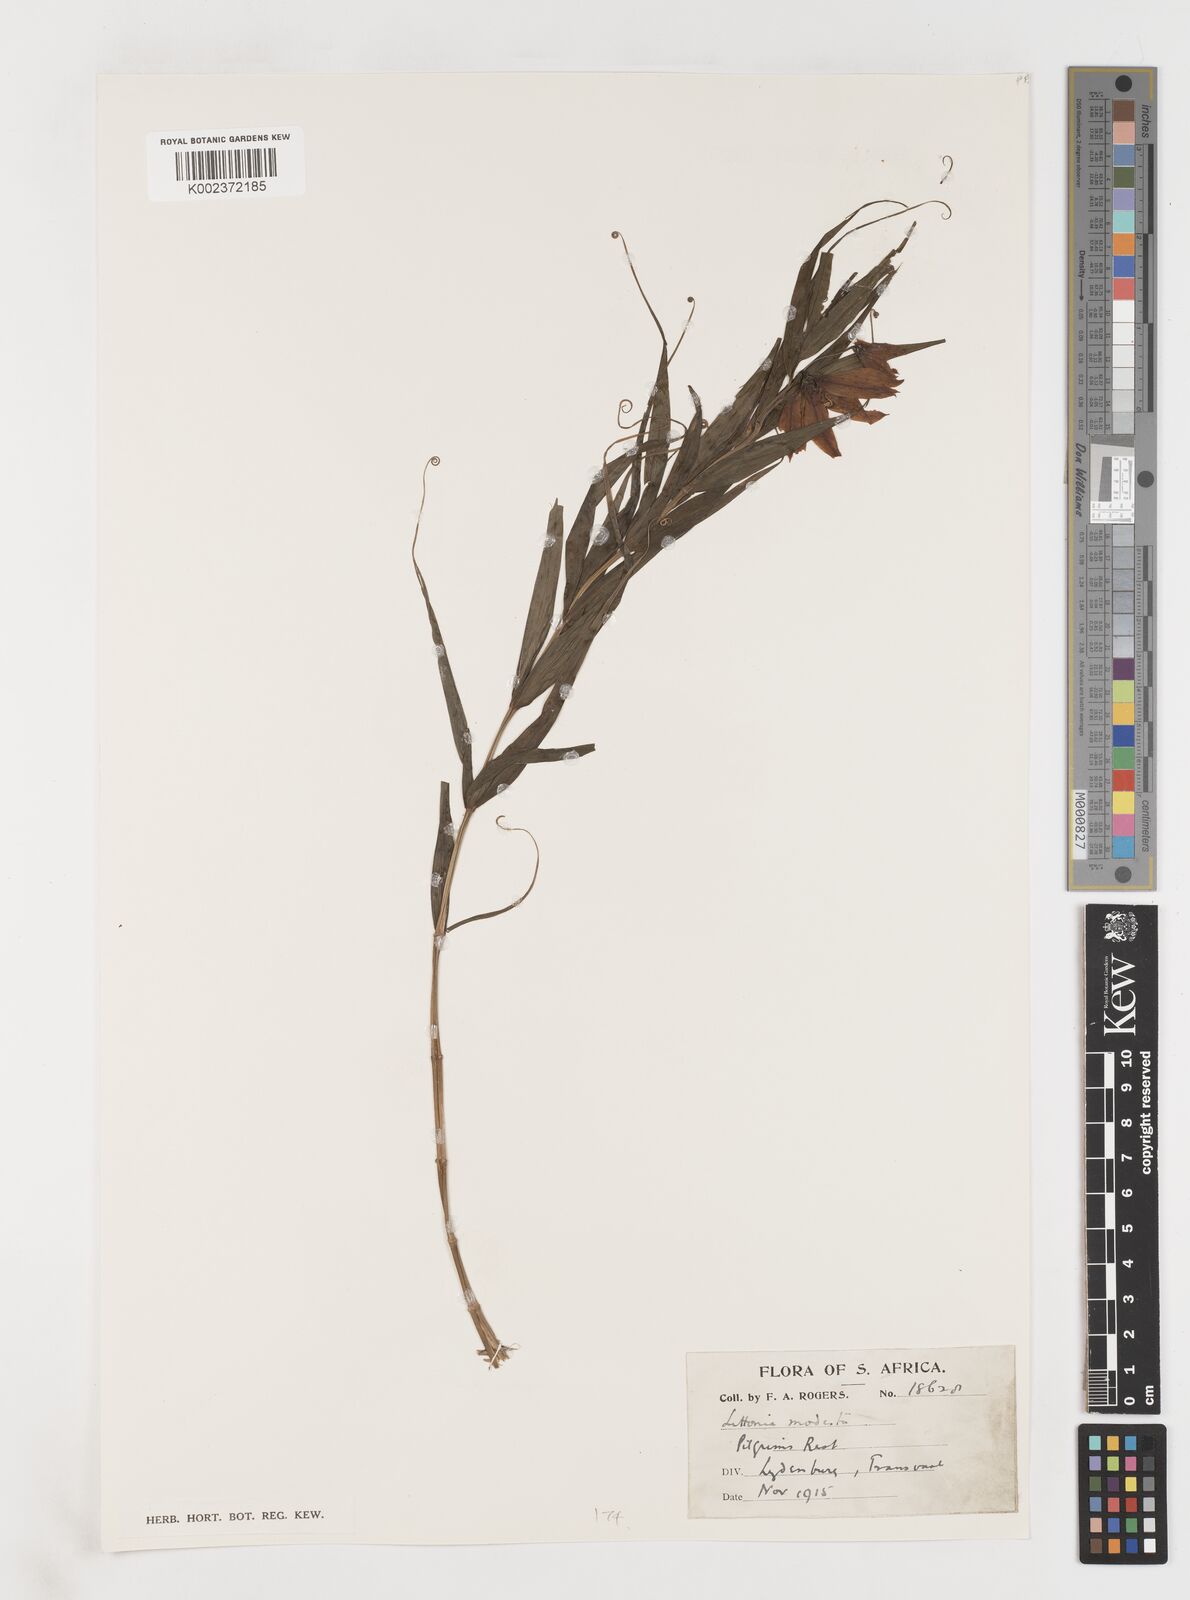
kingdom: Plantae
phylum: Tracheophyta
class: Liliopsida
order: Liliales
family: Colchicaceae
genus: Gloriosa
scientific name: Gloriosa modesta
